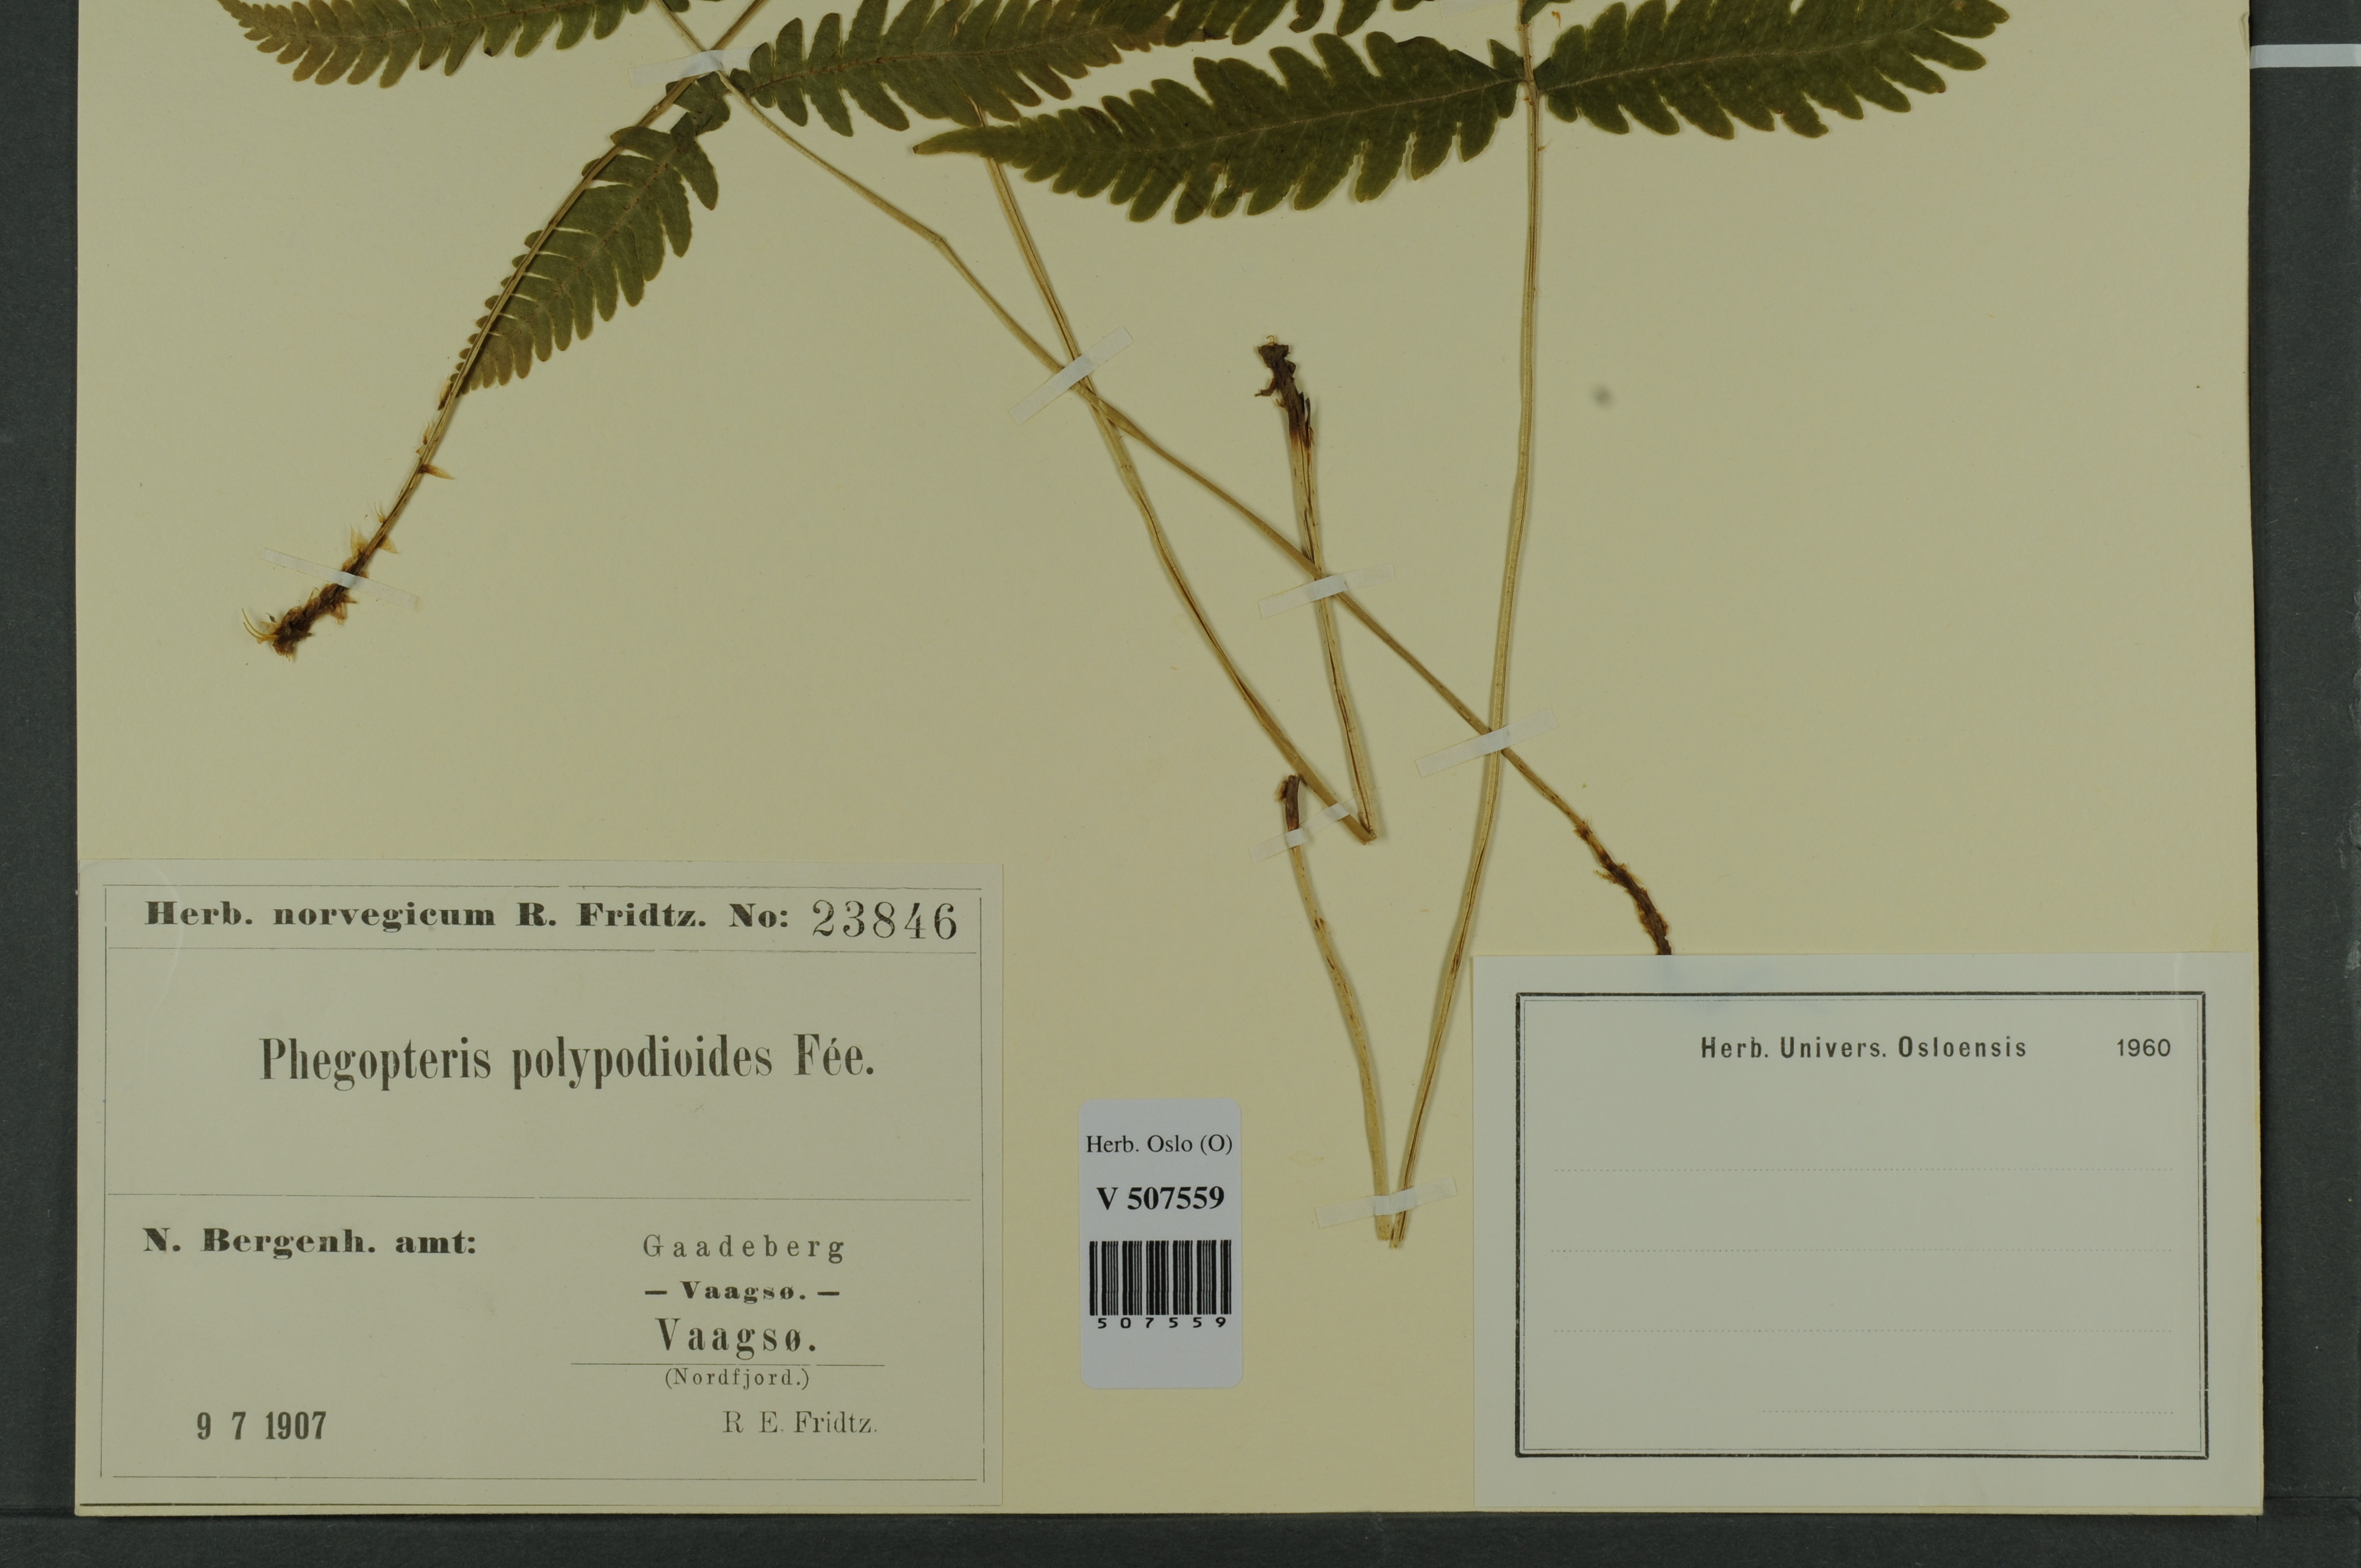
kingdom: Plantae
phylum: Tracheophyta
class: Polypodiopsida
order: Polypodiales
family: Thelypteridaceae
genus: Phegopteris
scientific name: Phegopteris connectilis
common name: Beech fern
